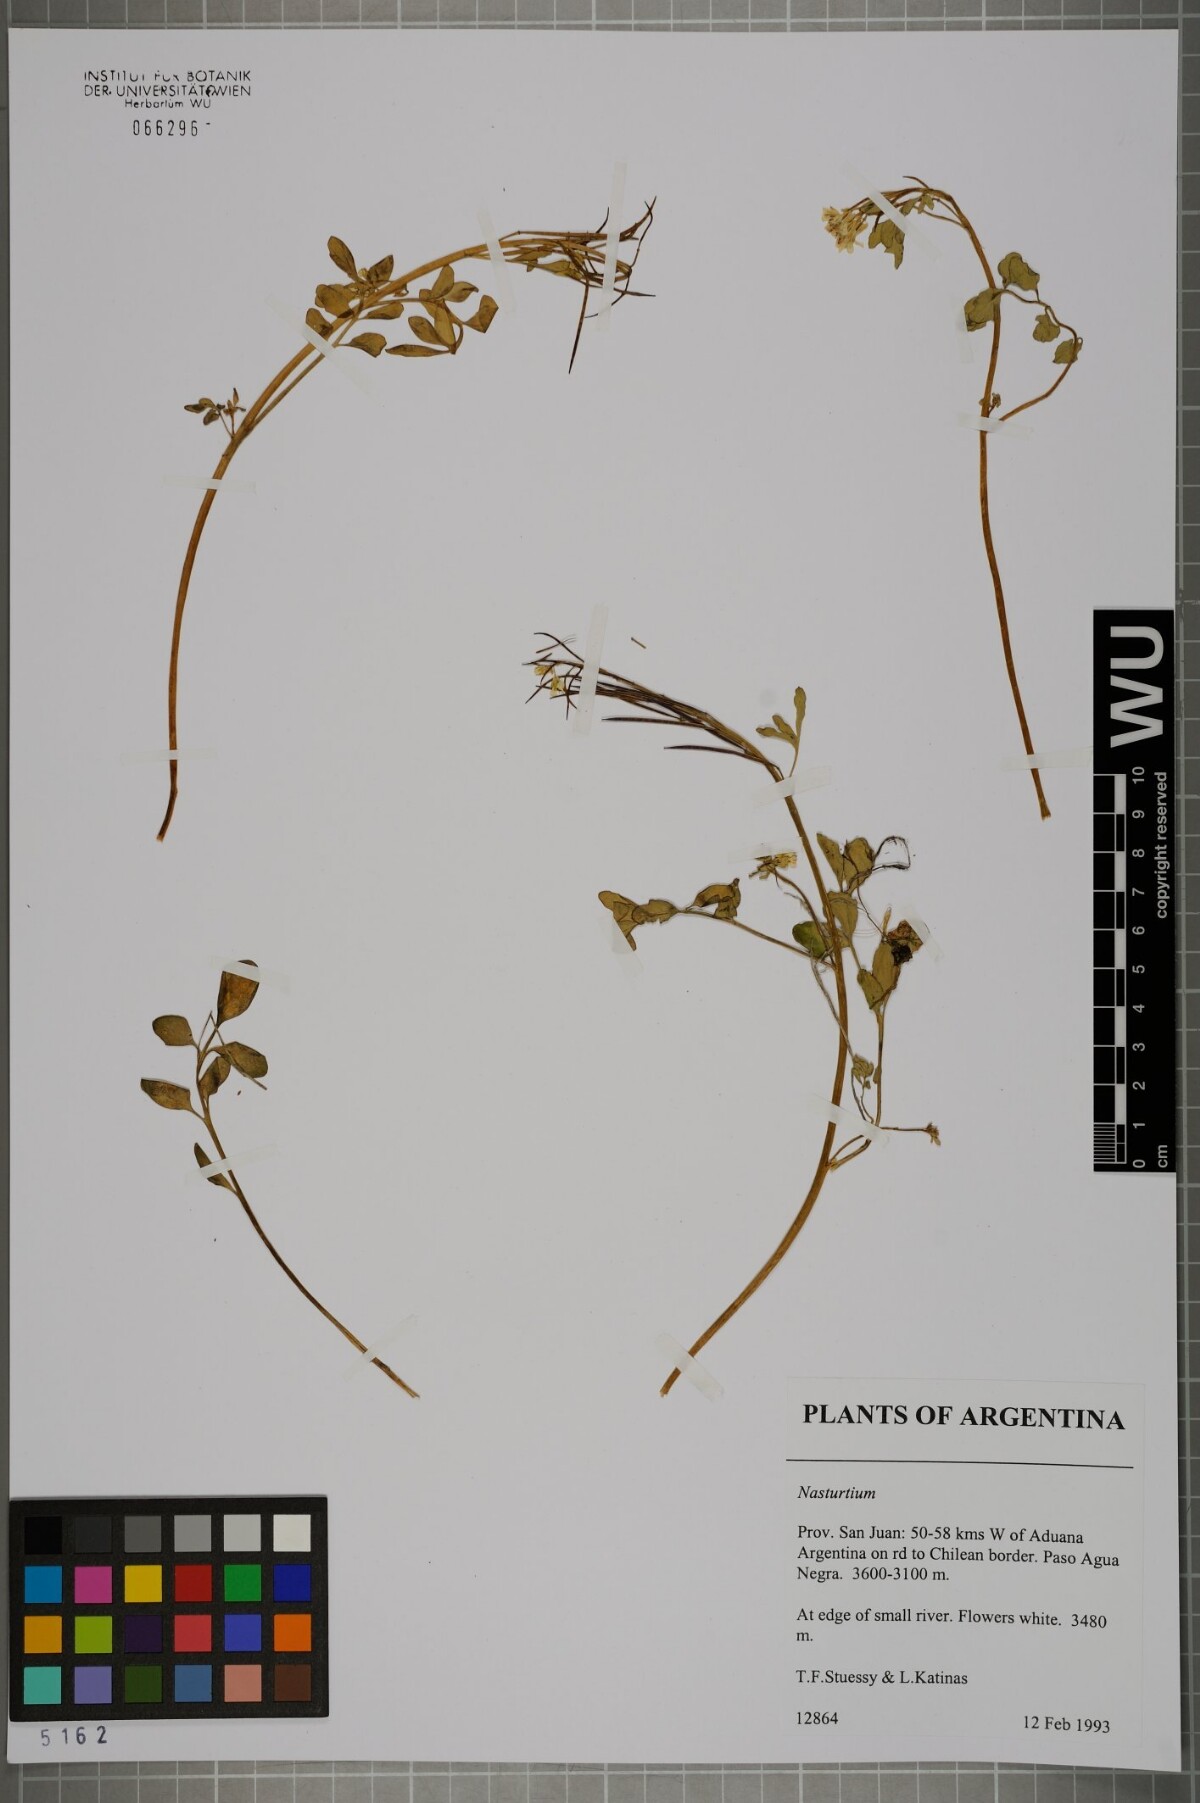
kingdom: Plantae
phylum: Tracheophyta
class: Magnoliopsida
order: Brassicales
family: Brassicaceae
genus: Nasturtium
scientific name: Nasturtium
